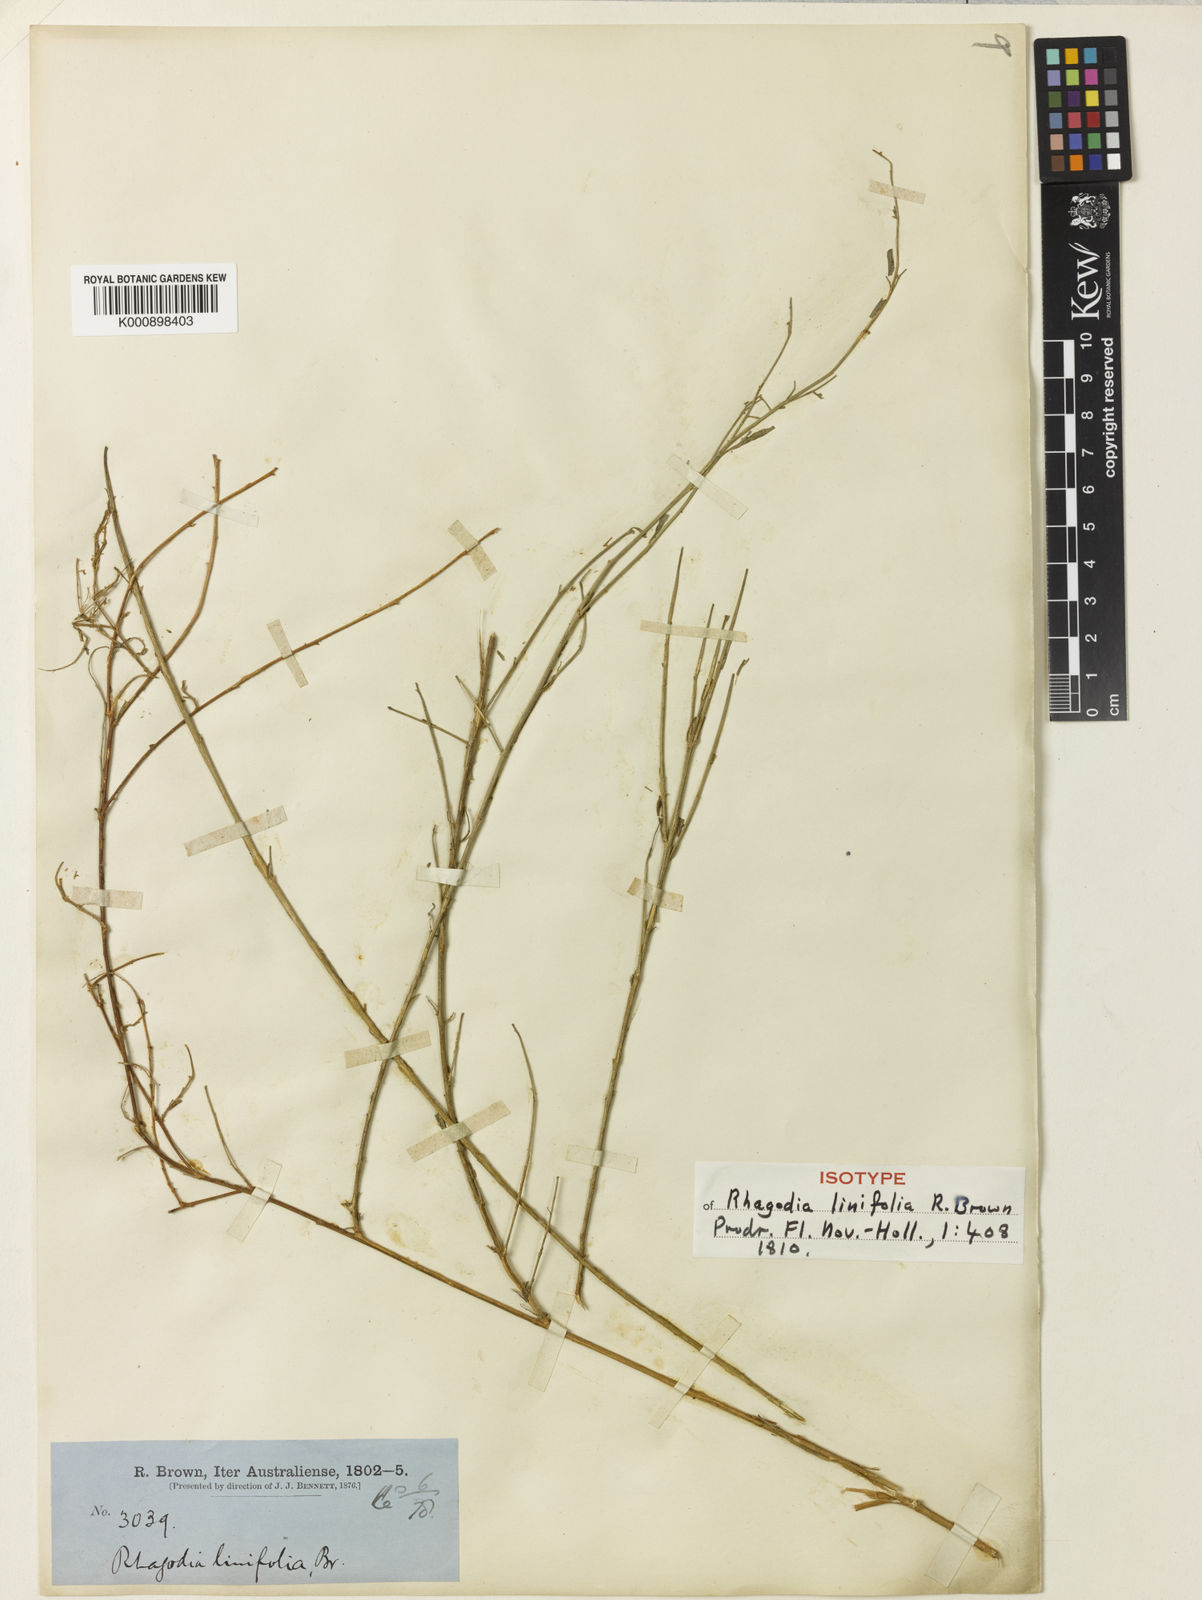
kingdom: Plantae
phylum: Tracheophyta
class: Magnoliopsida
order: Caryophyllales
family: Amaranthaceae
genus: Chenopodium
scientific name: Chenopodium nutans
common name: Climbing-saltbush
